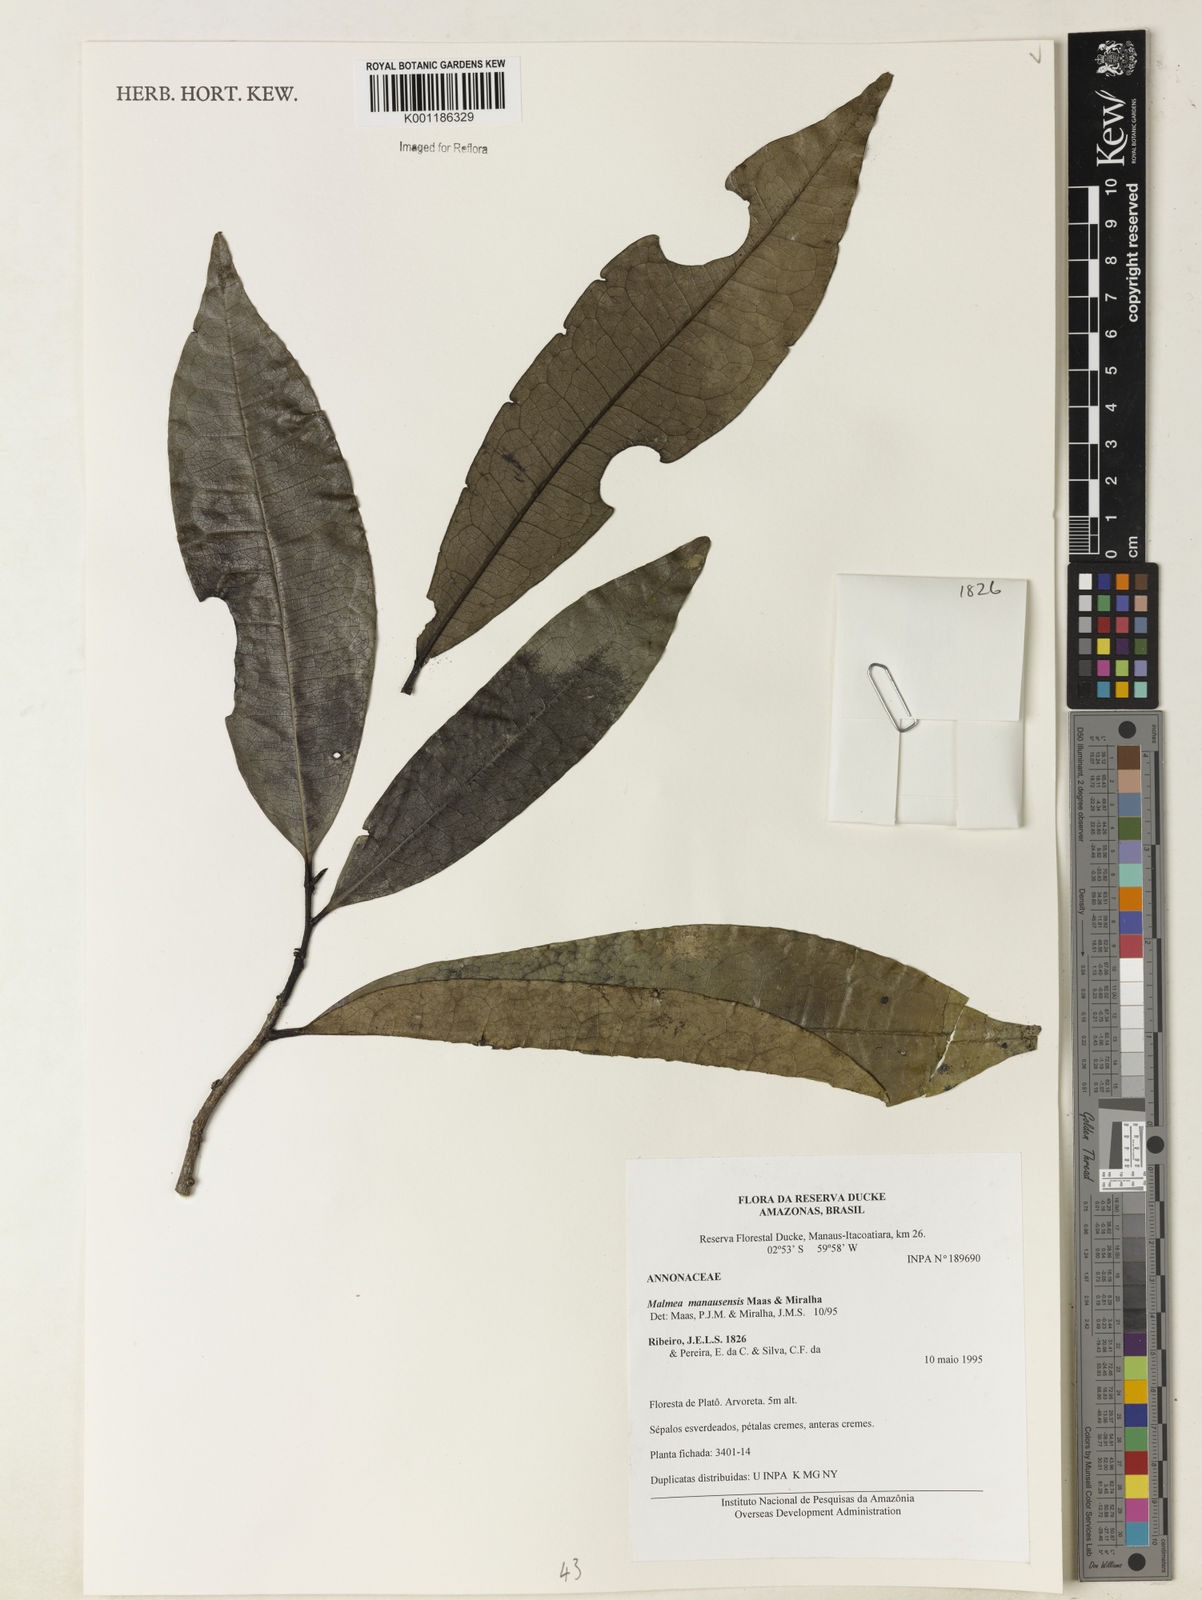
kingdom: Plantae
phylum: Tracheophyta
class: Magnoliopsida
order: Magnoliales
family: Annonaceae
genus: Malmea
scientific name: Malmea manausensis
